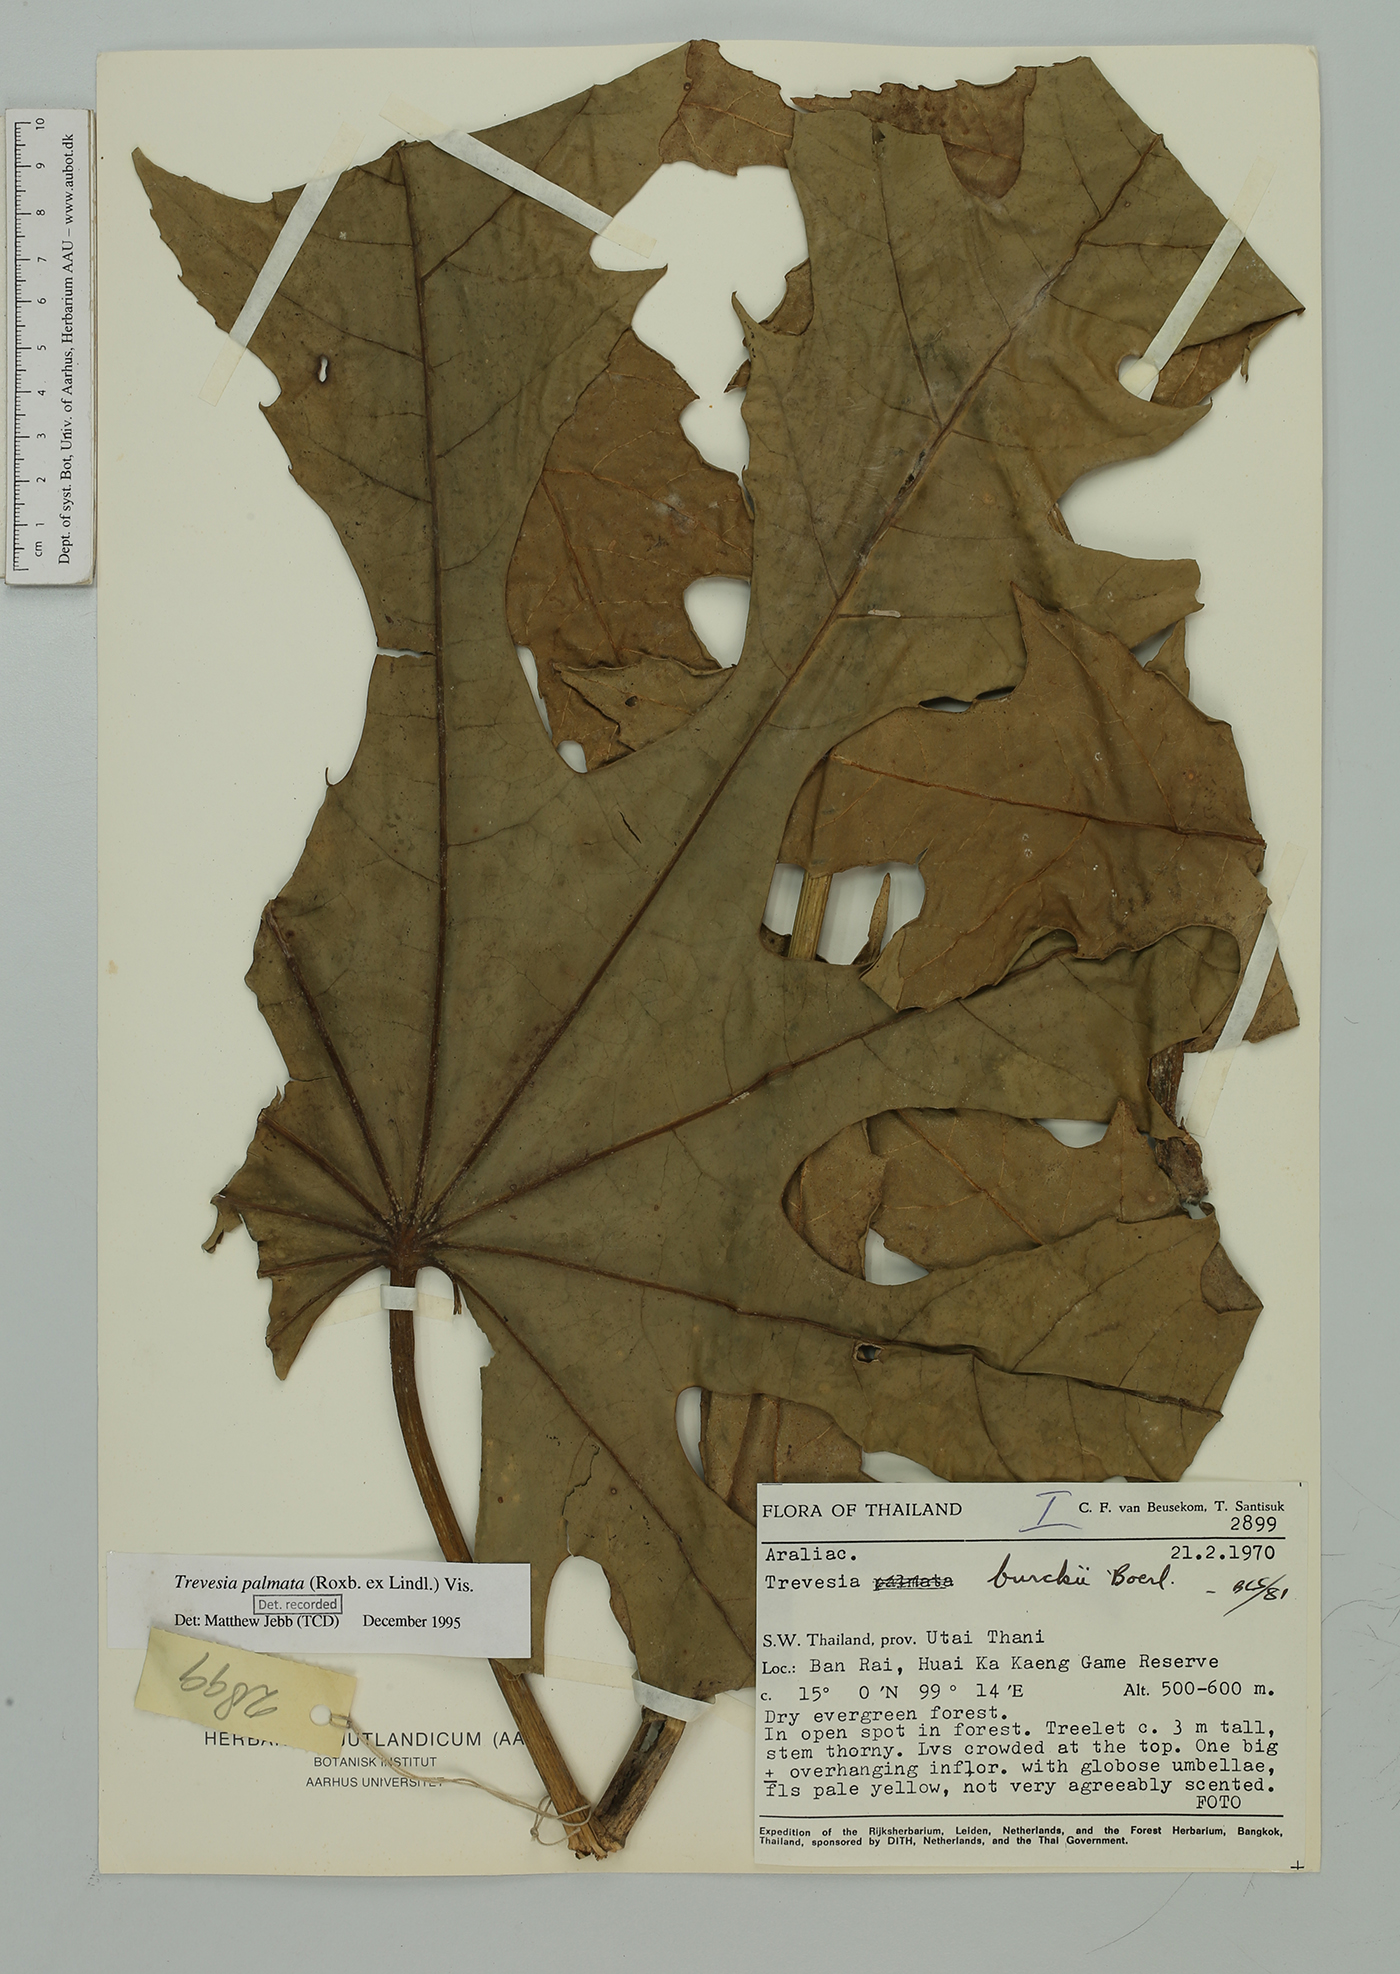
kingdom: Plantae
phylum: Tracheophyta
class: Magnoliopsida
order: Apiales
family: Araliaceae
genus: Trevesia
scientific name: Trevesia palmata
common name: Snowflakeplant
